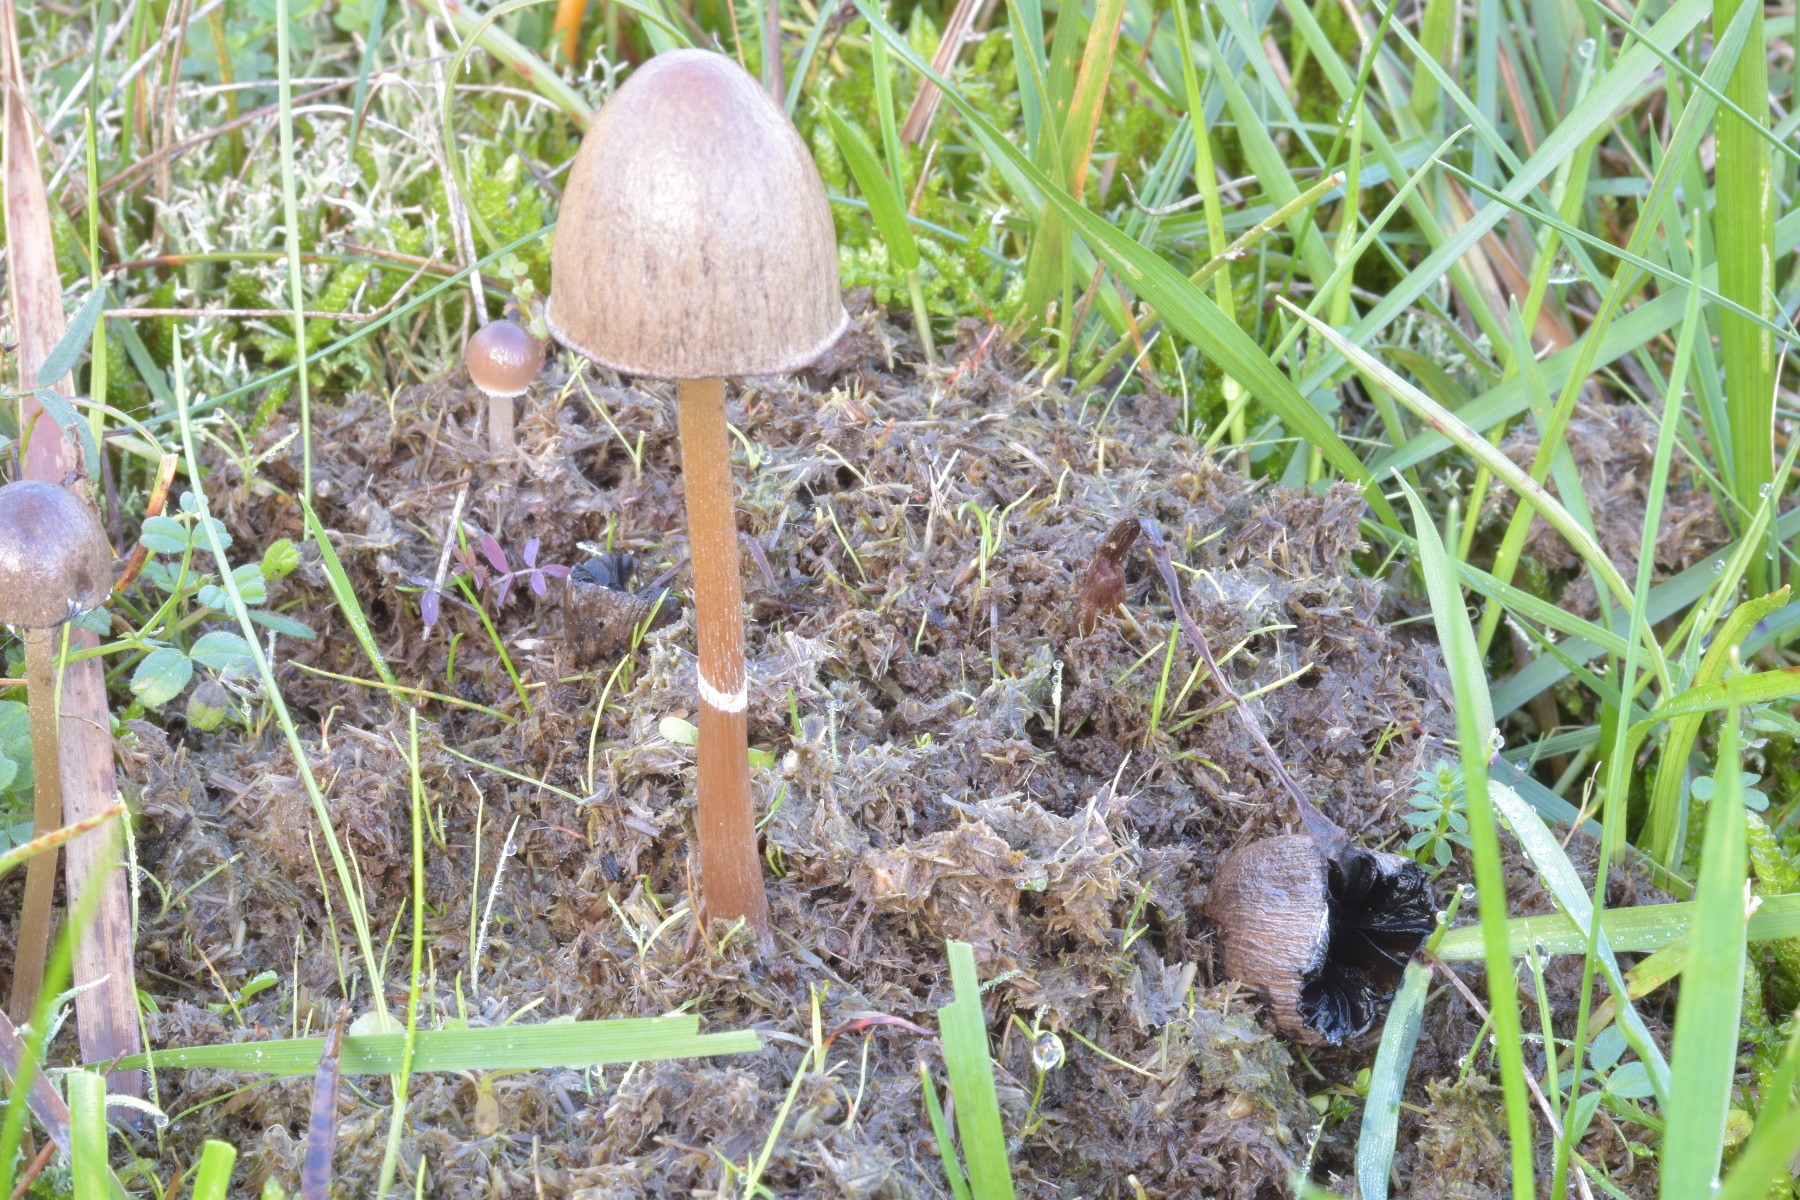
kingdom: Fungi
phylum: Basidiomycota
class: Agaricomycetes
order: Agaricales
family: Bolbitiaceae
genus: Panaeolus
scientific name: Panaeolus semiovatus
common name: ring-glanshat
